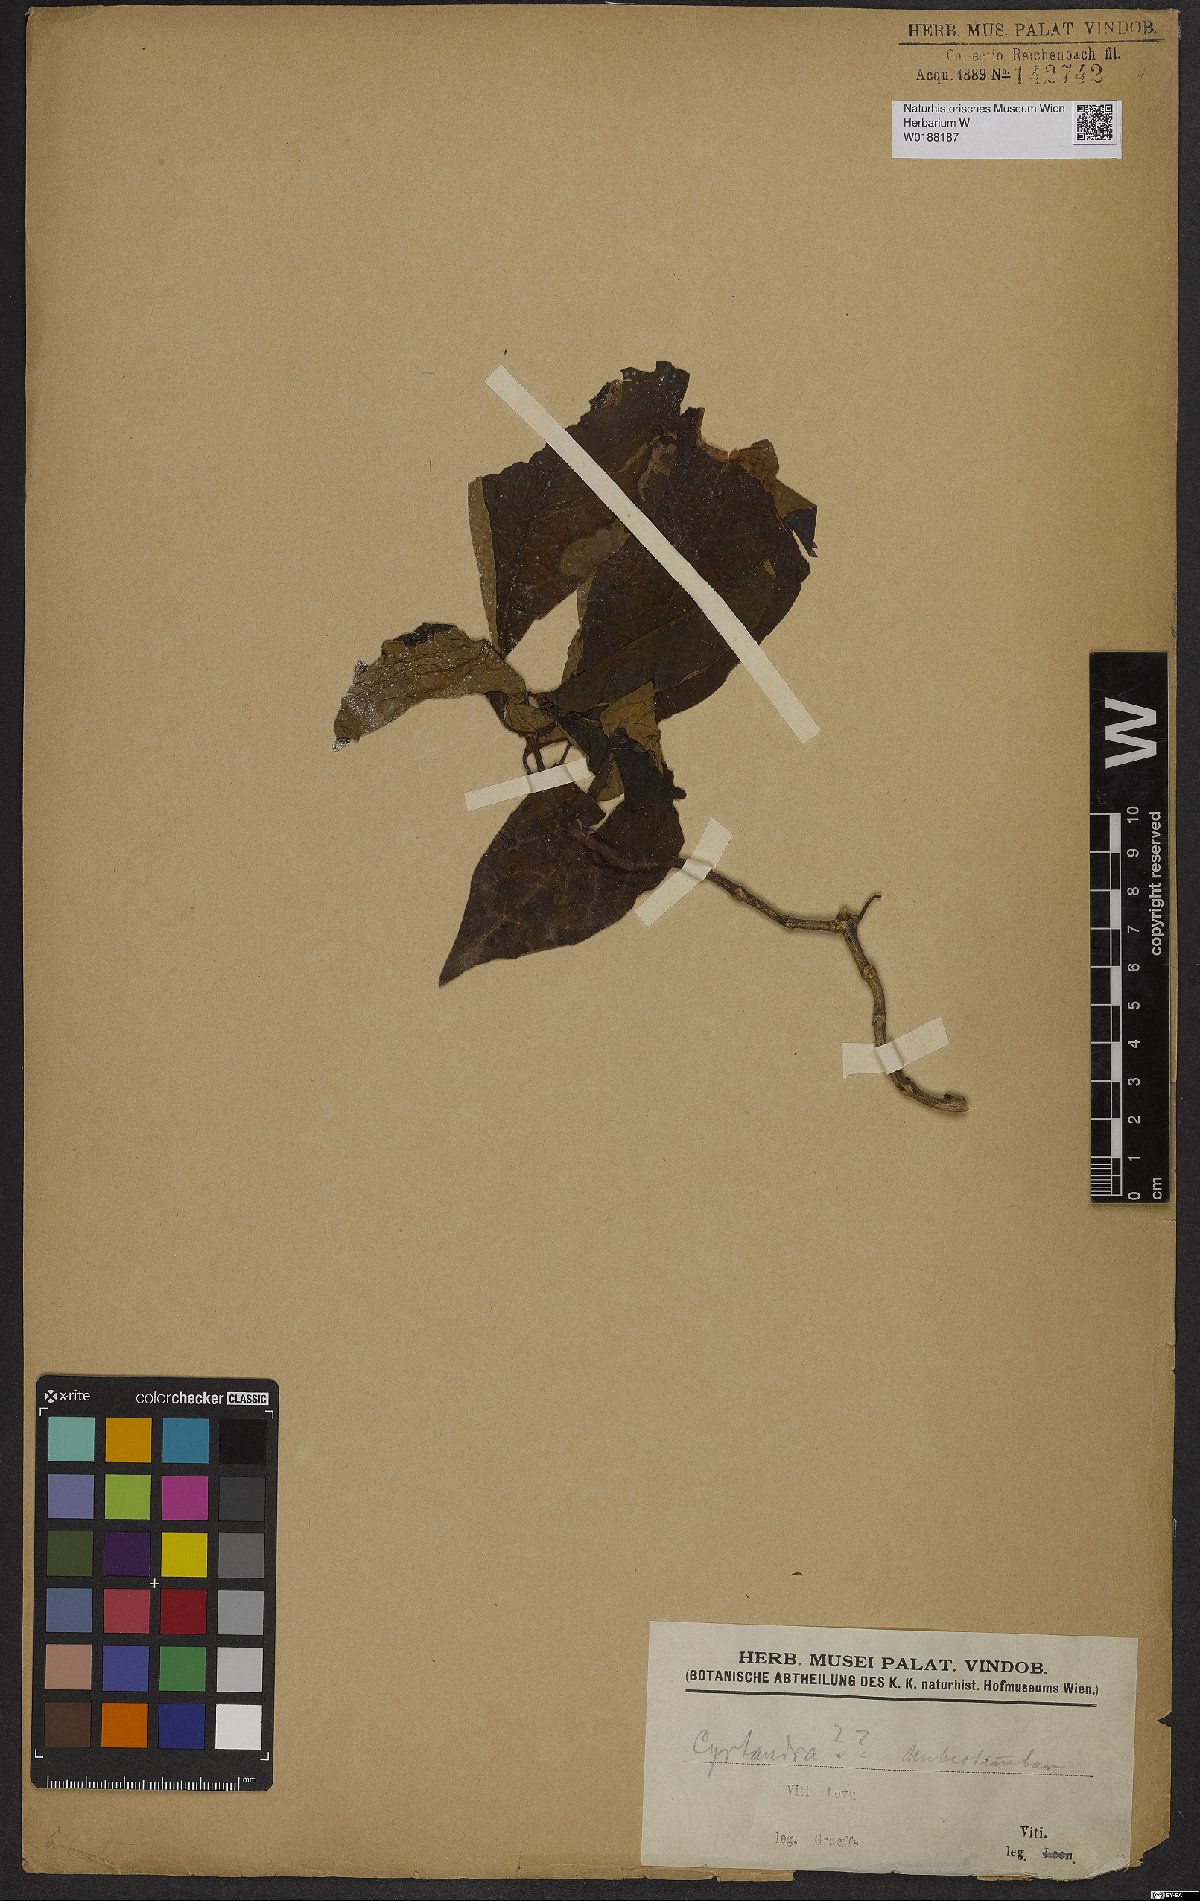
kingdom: Plantae
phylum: Tracheophyta
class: Magnoliopsida
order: Lamiales
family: Gesneriaceae
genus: Cyrtandra
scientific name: Cyrtandra
